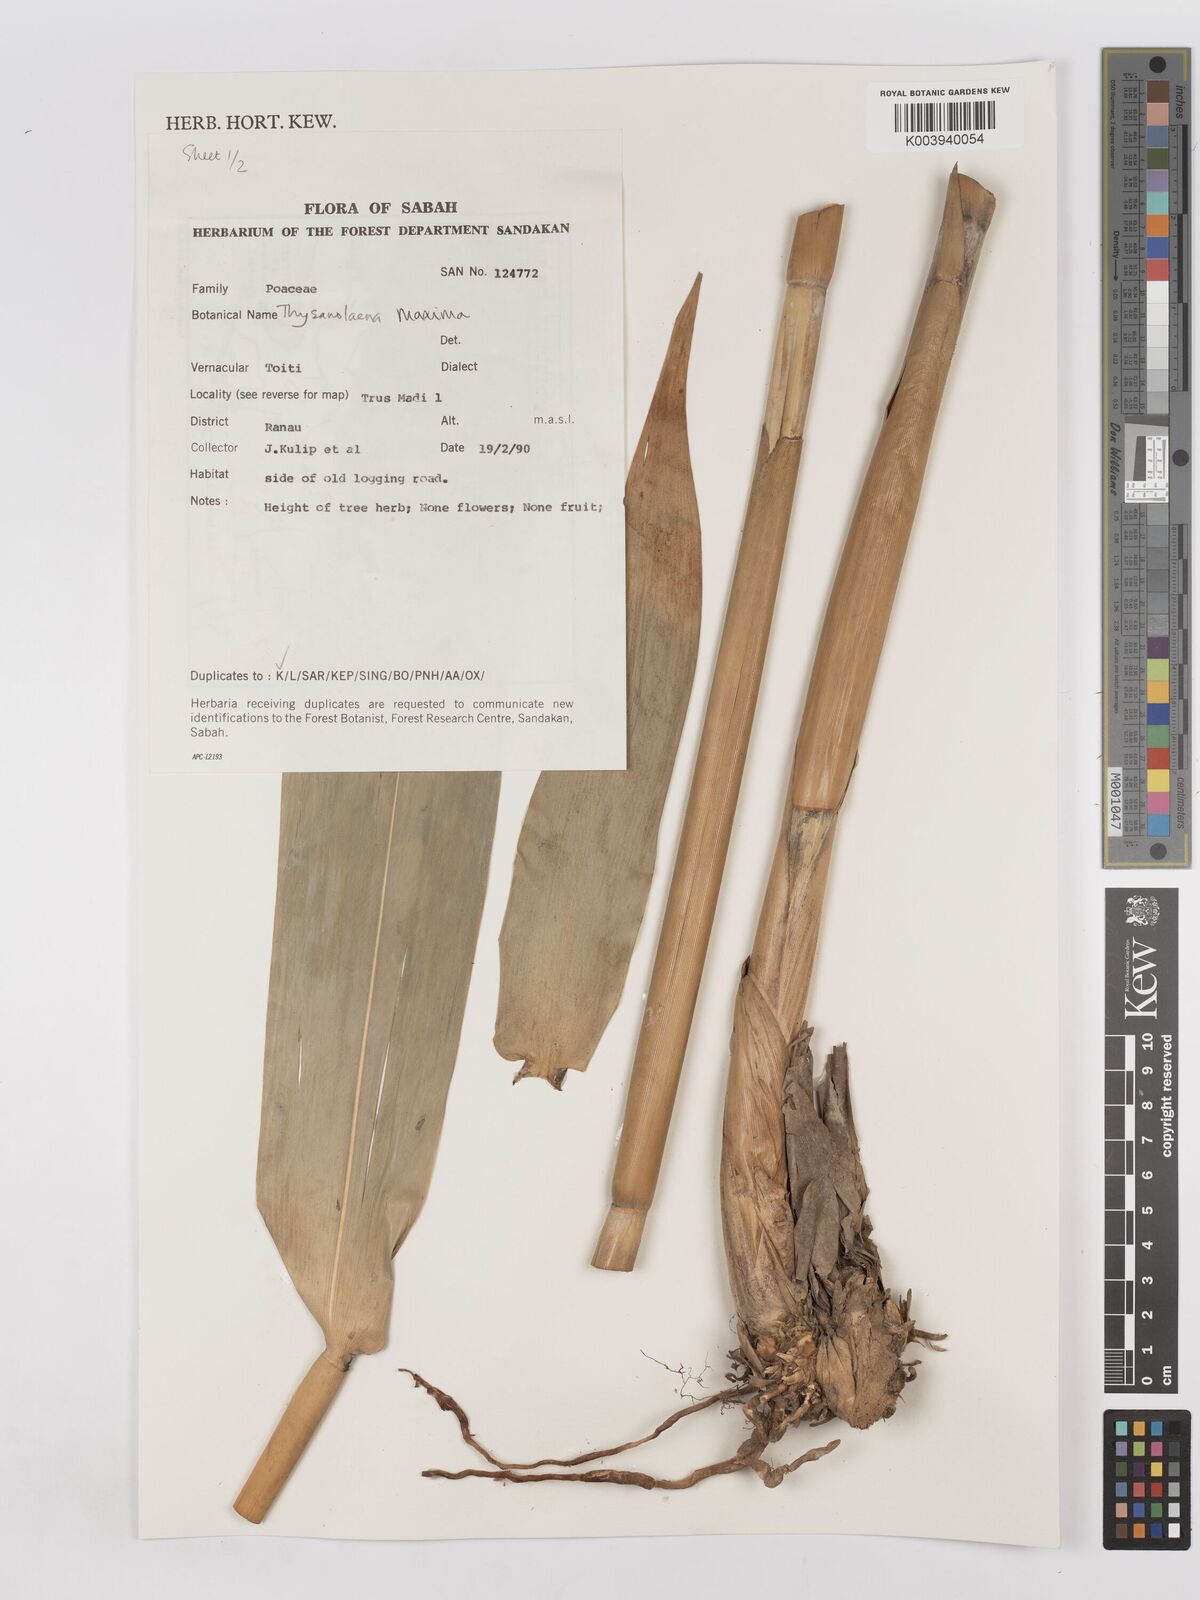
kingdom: Plantae
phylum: Tracheophyta
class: Liliopsida
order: Poales
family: Poaceae
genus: Thysanolaena
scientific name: Thysanolaena latifolia
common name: Tiger grass
